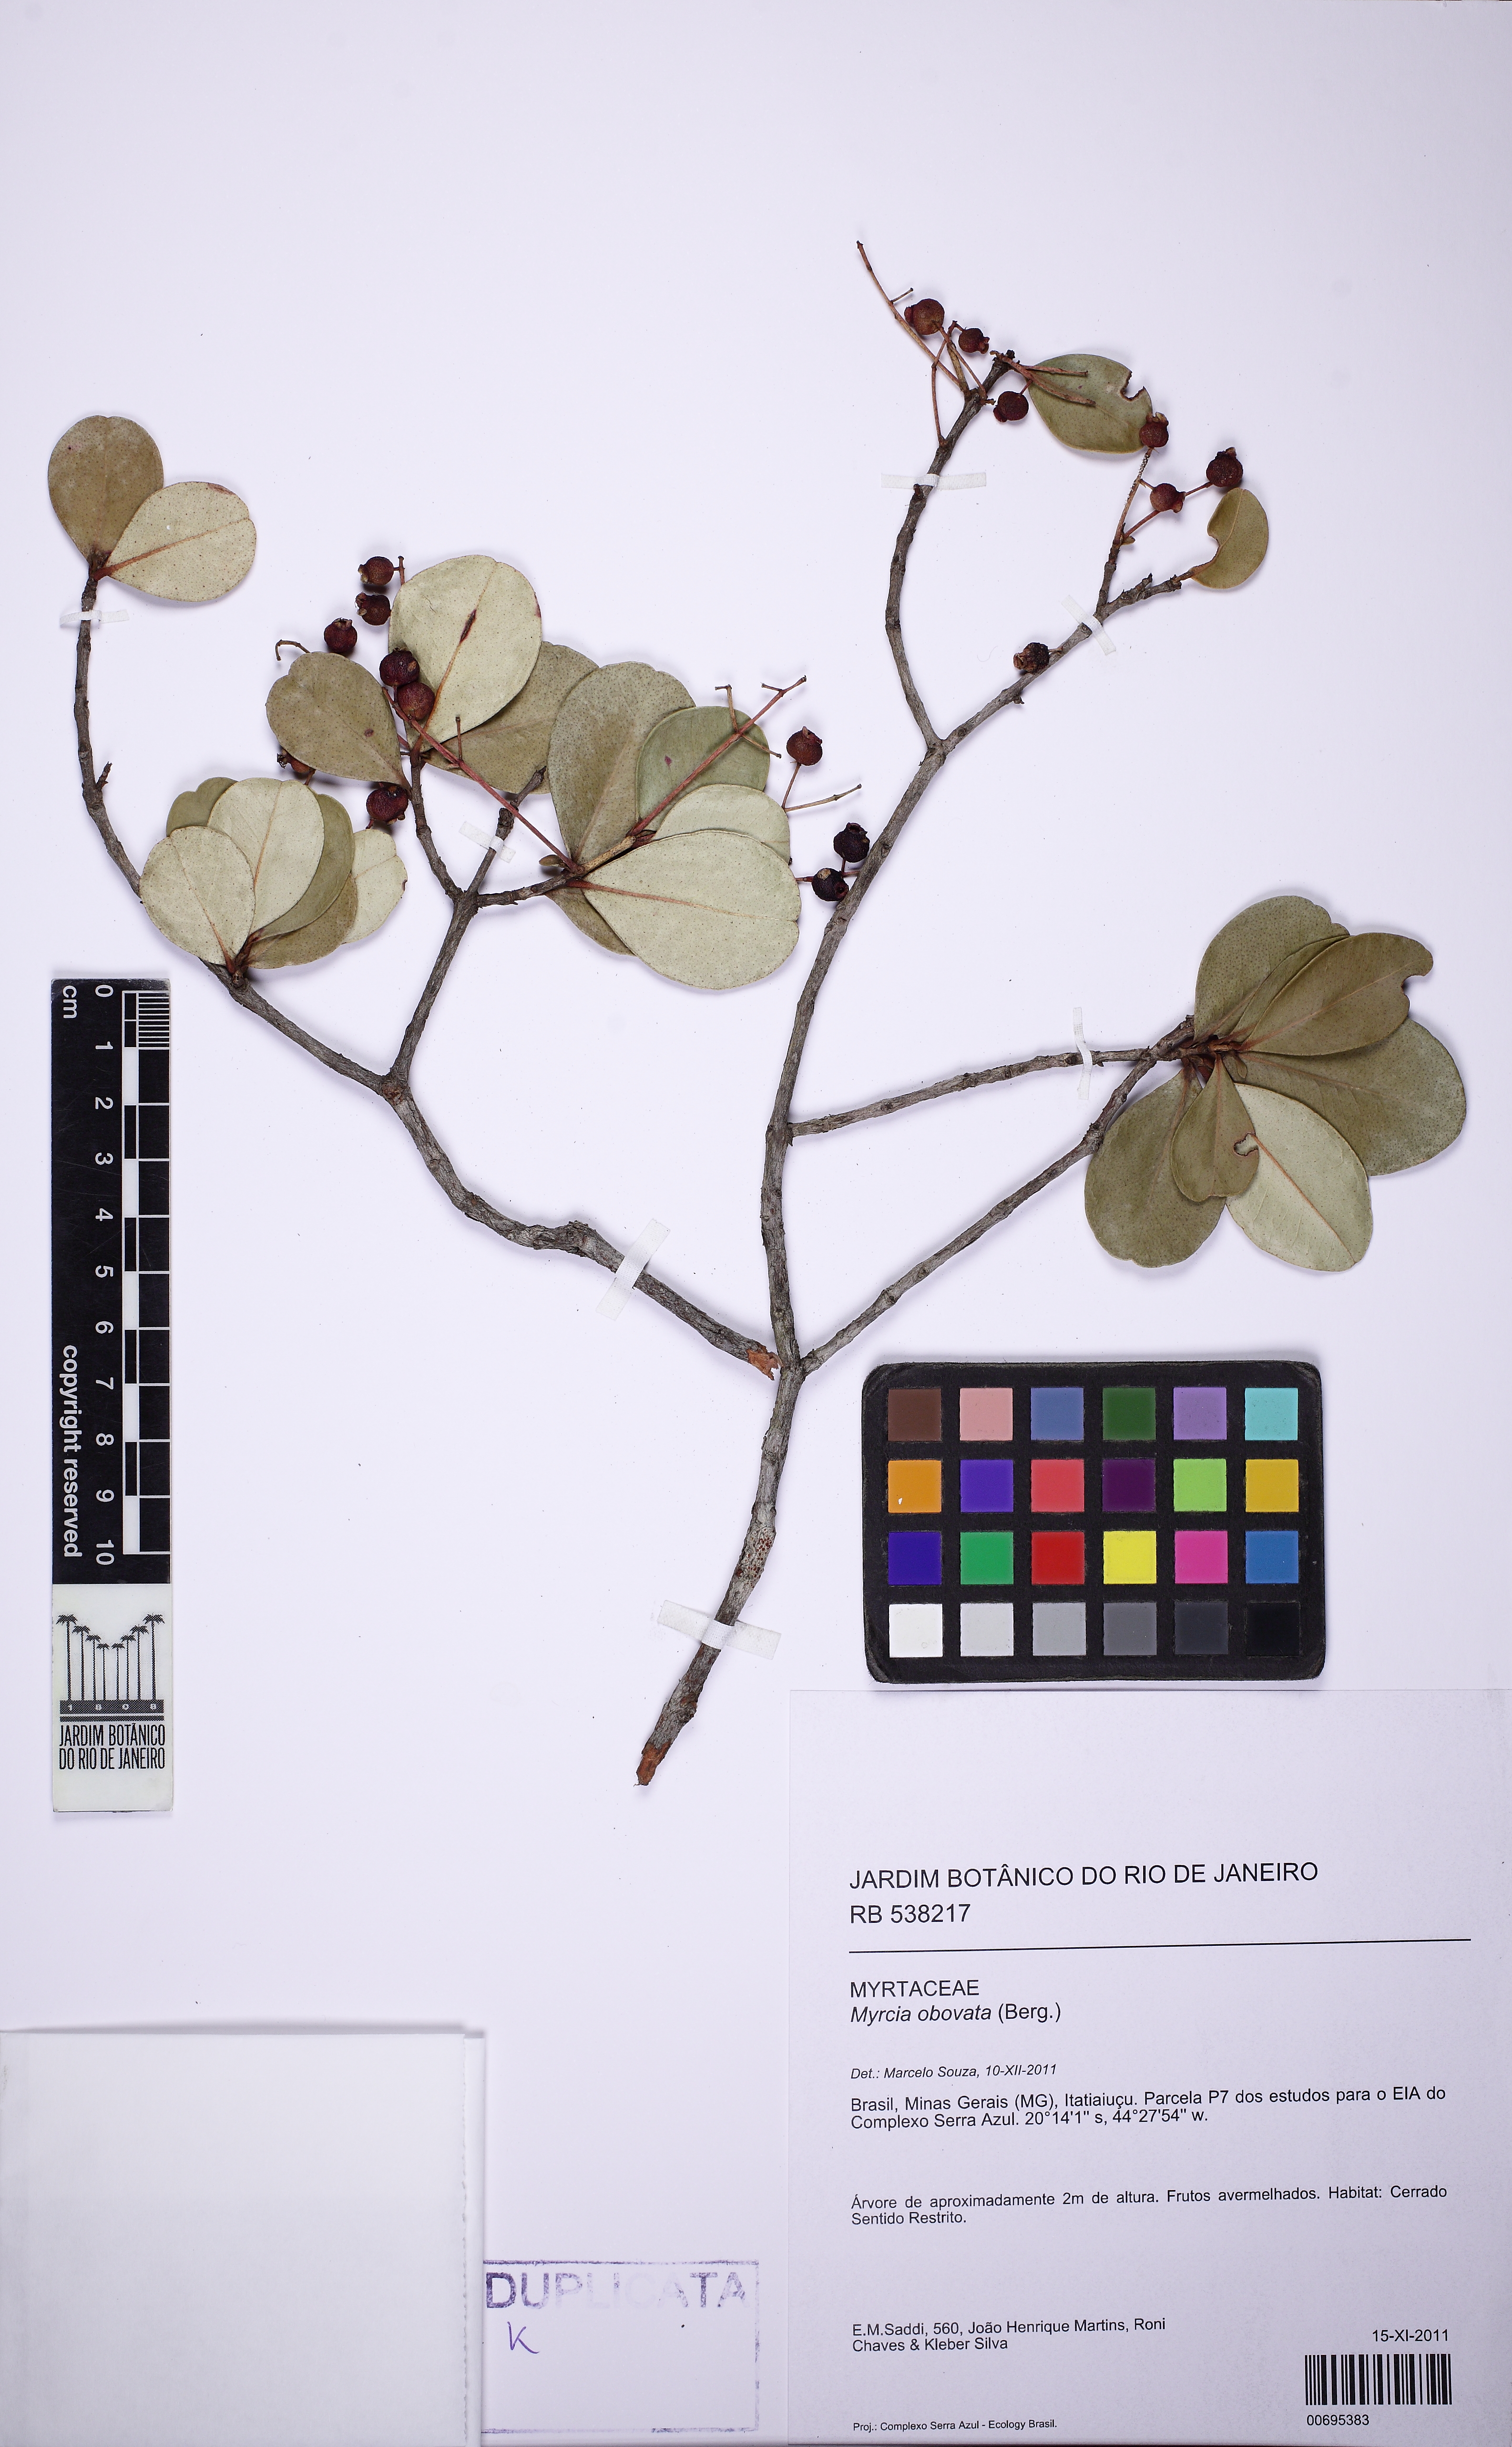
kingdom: Plantae
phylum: Tracheophyta
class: Magnoliopsida
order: Myrtales
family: Myrtaceae
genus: Myrcia
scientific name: Myrcia obovata
